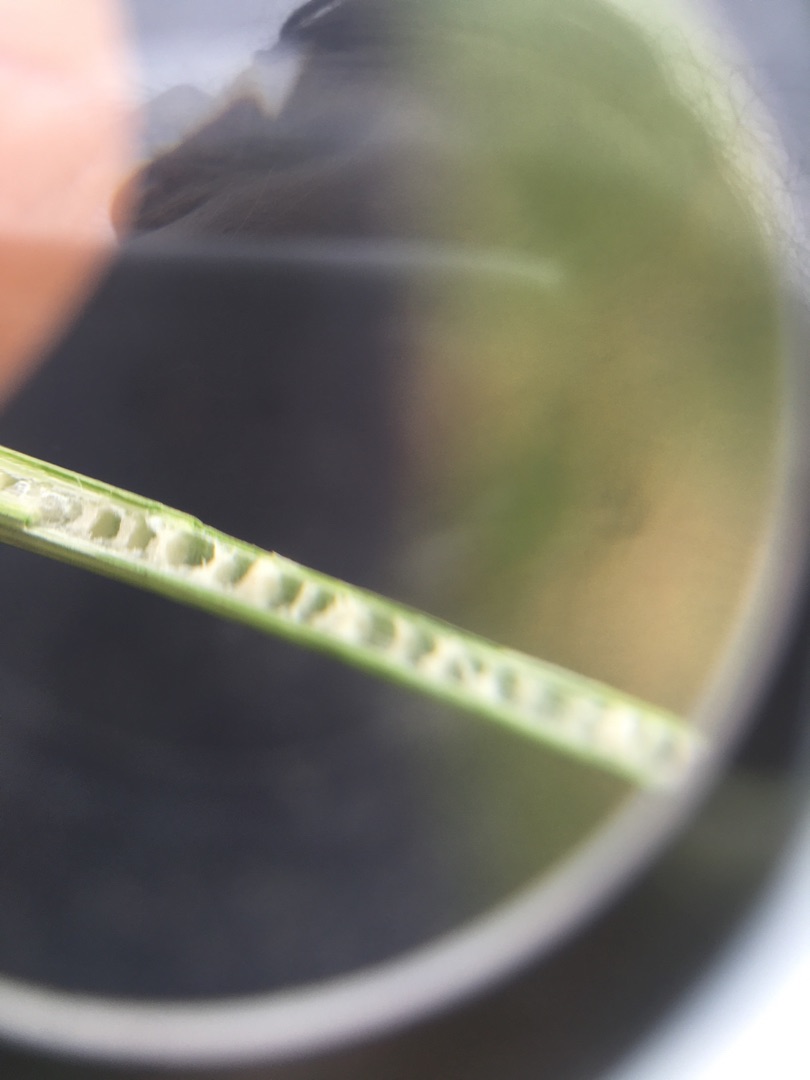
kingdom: Plantae
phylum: Tracheophyta
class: Liliopsida
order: Poales
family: Juncaceae
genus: Juncus
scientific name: Juncus inflexus
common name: Blågrå siv
